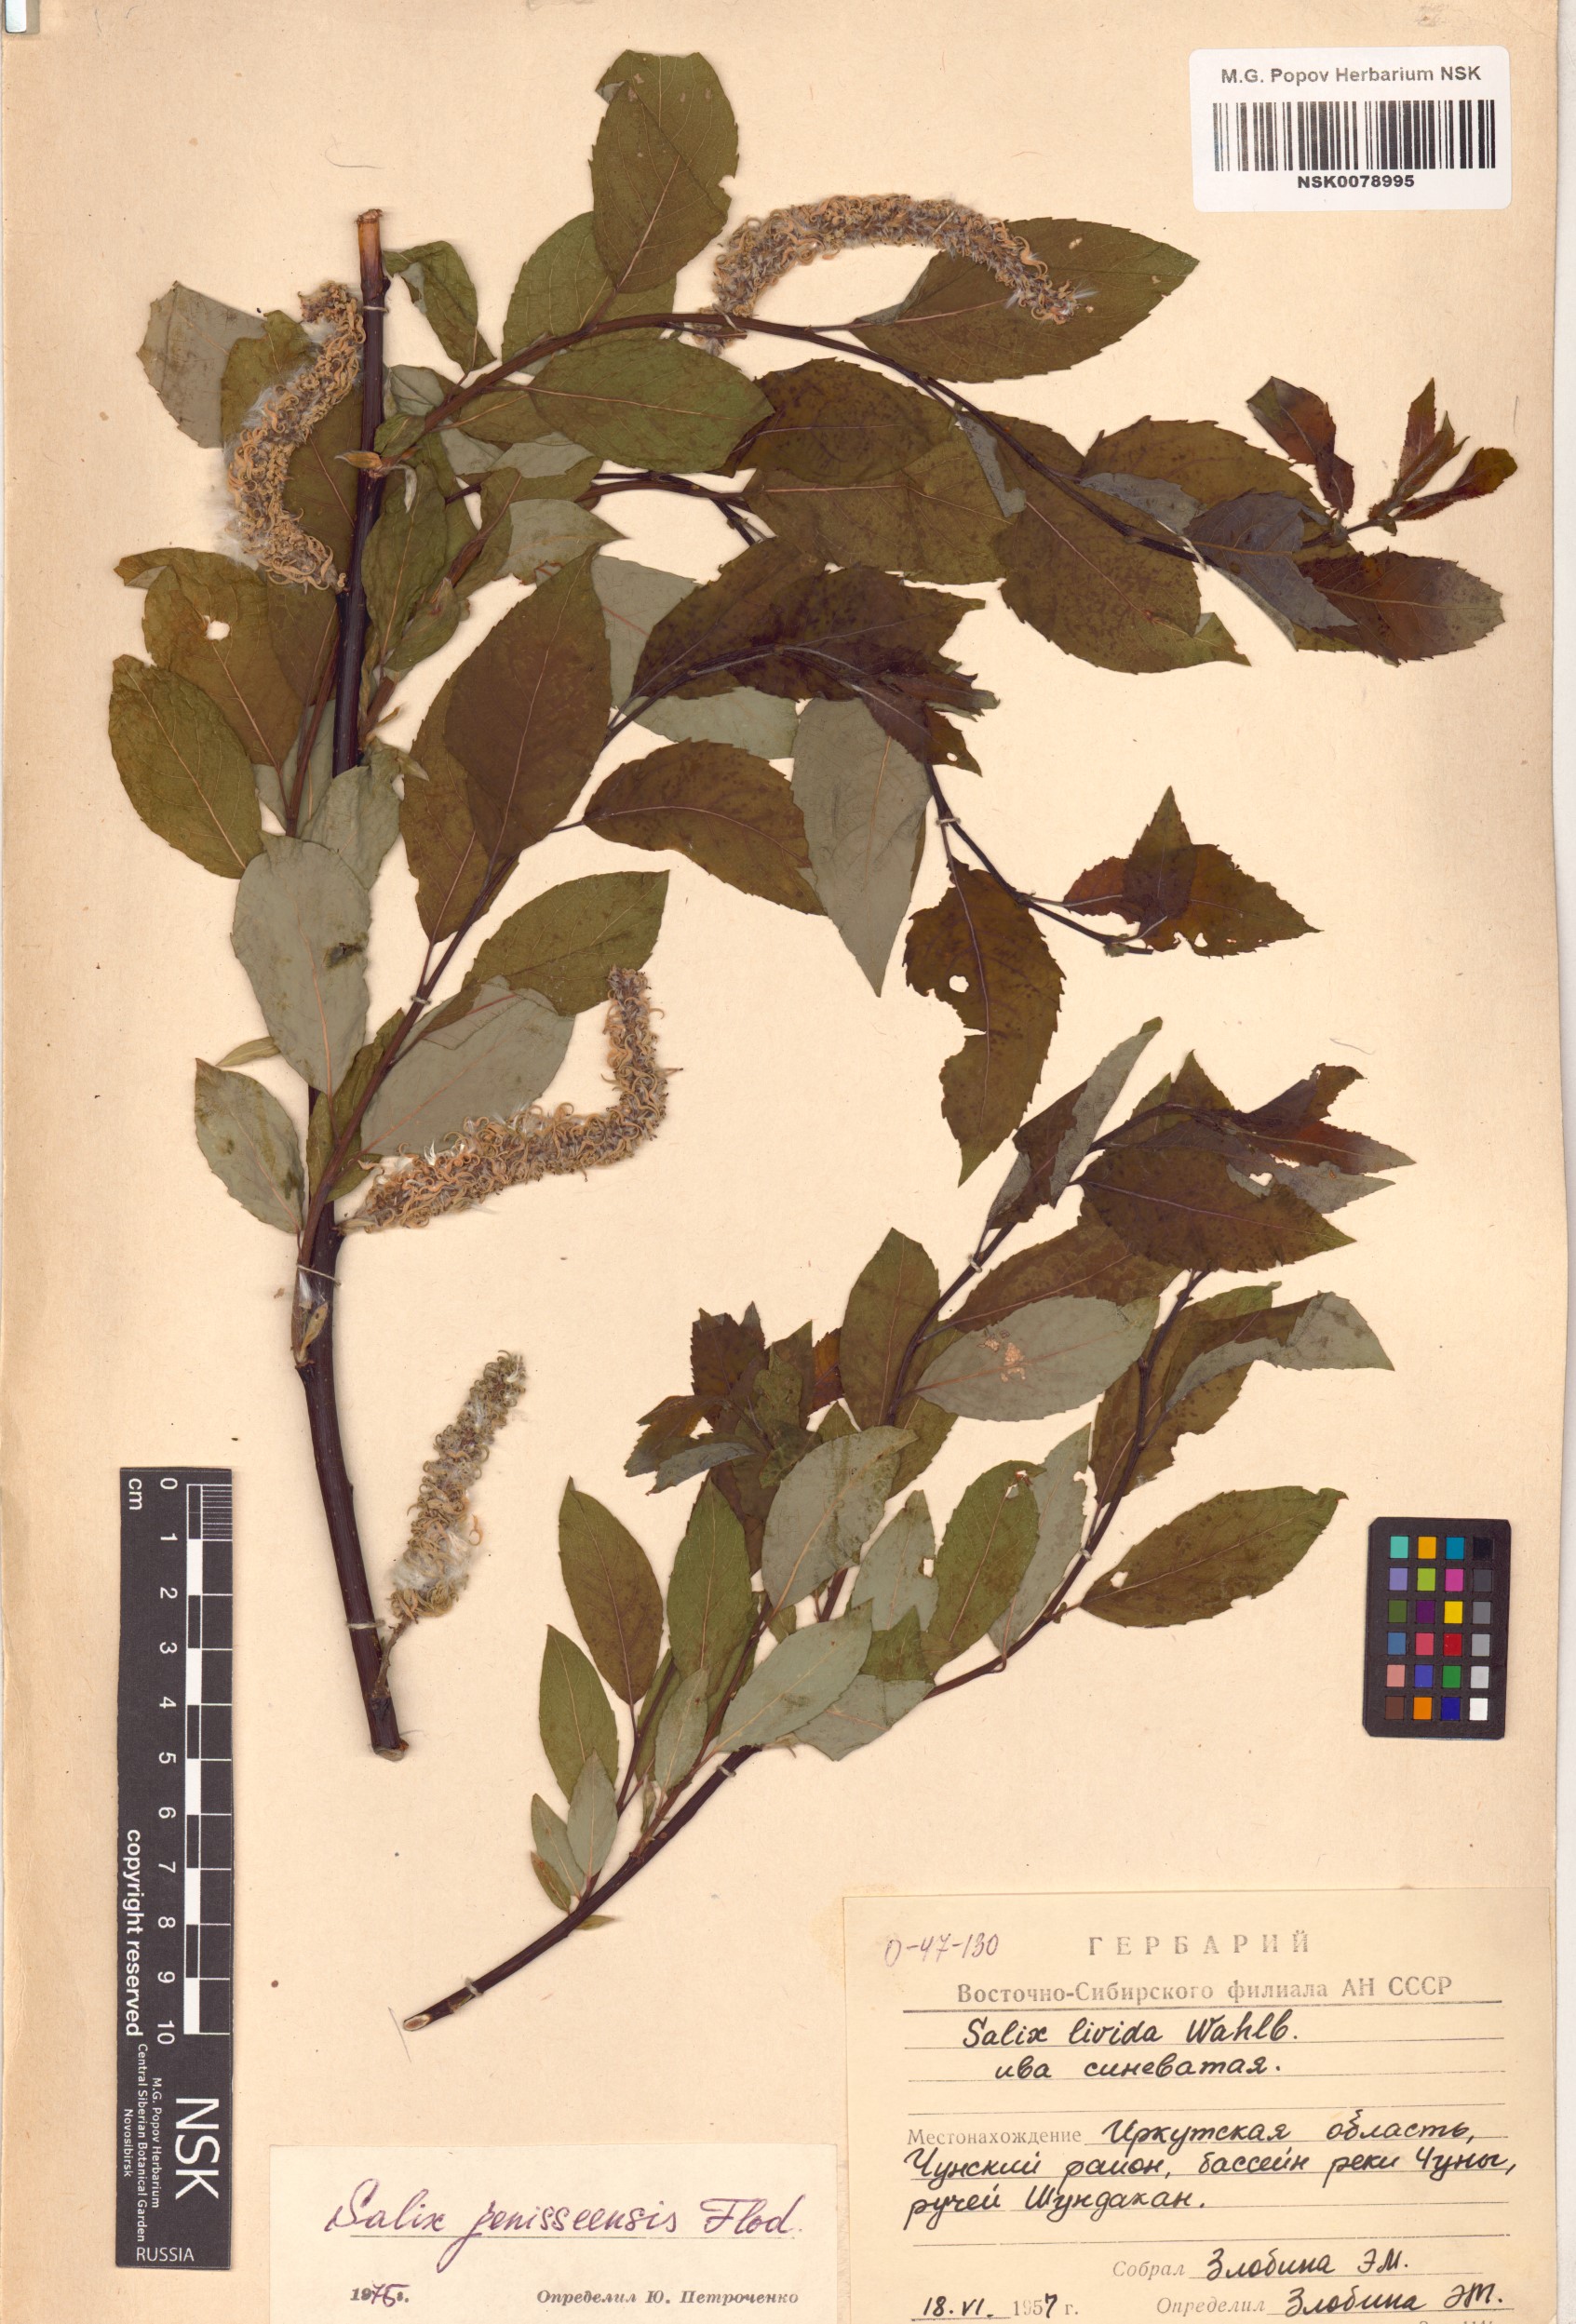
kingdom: Plantae
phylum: Tracheophyta
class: Magnoliopsida
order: Malpighiales
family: Salicaceae
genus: Salix
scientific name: Salix jenisseensis
